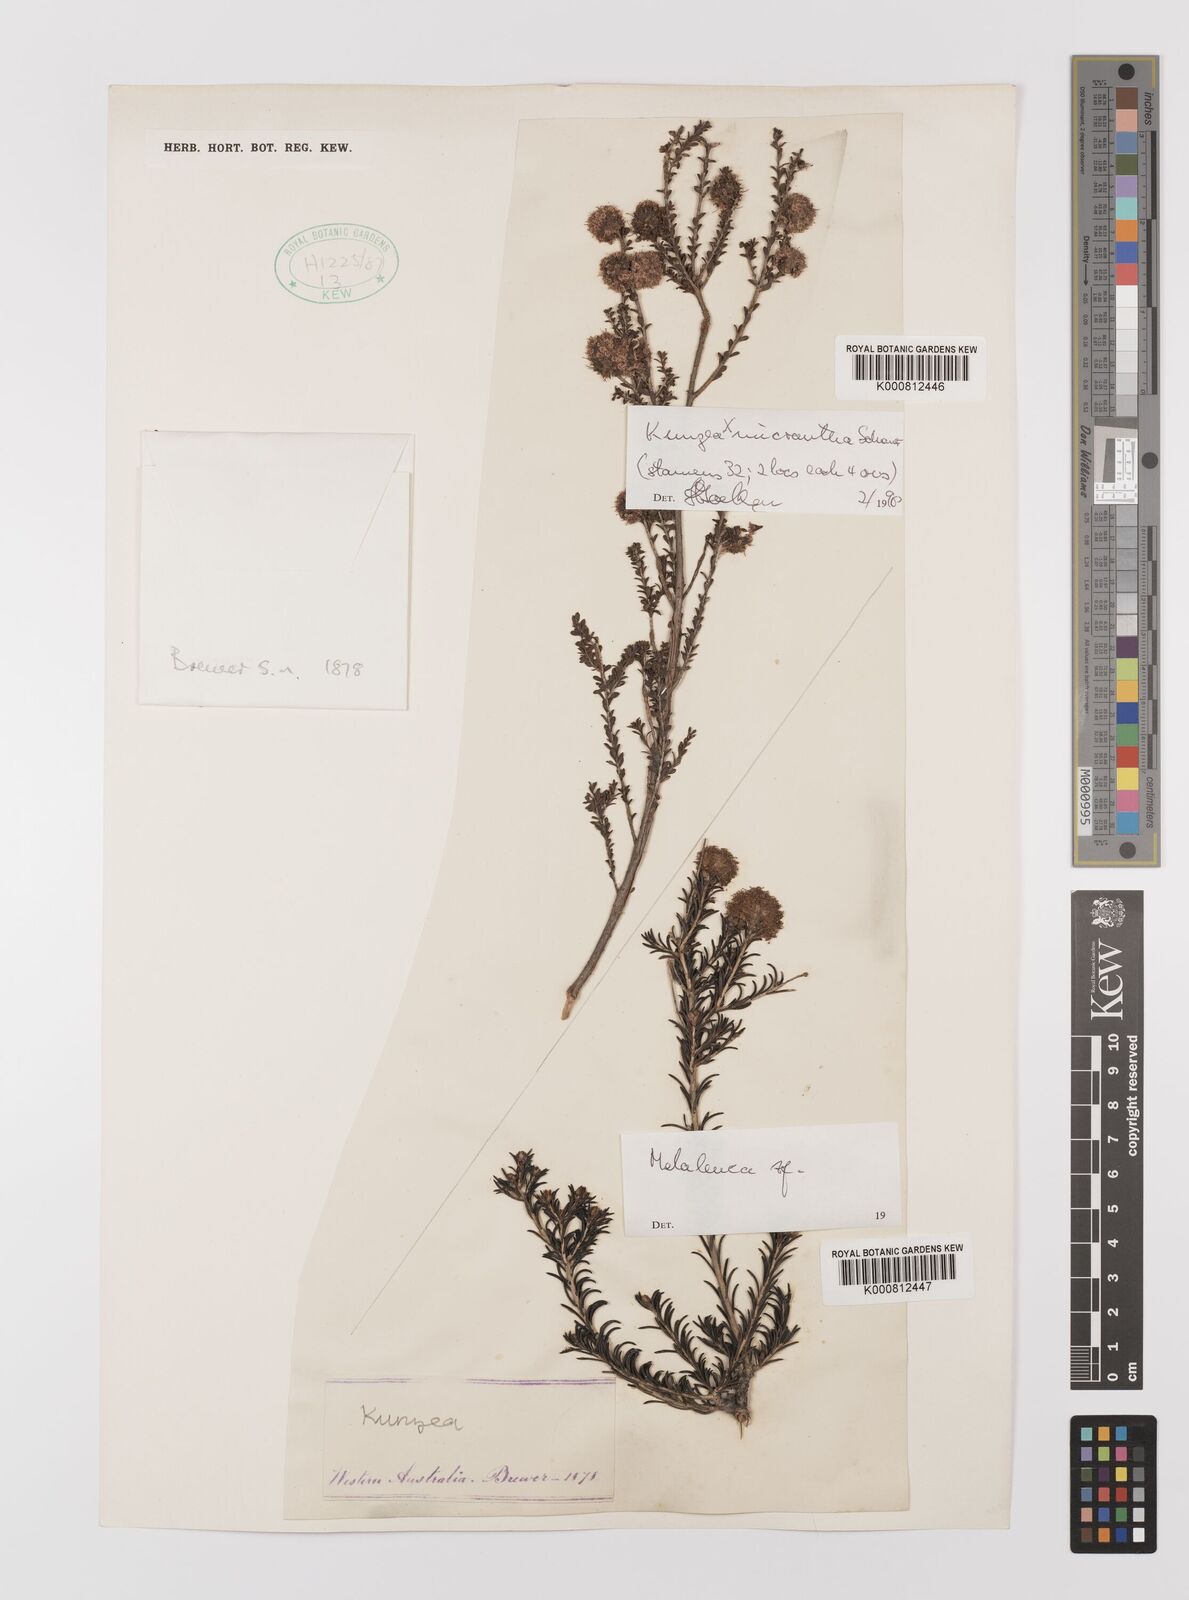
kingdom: Plantae
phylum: Tracheophyta
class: Magnoliopsida
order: Myrtales
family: Myrtaceae
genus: Melaleuca
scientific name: Melaleuca
